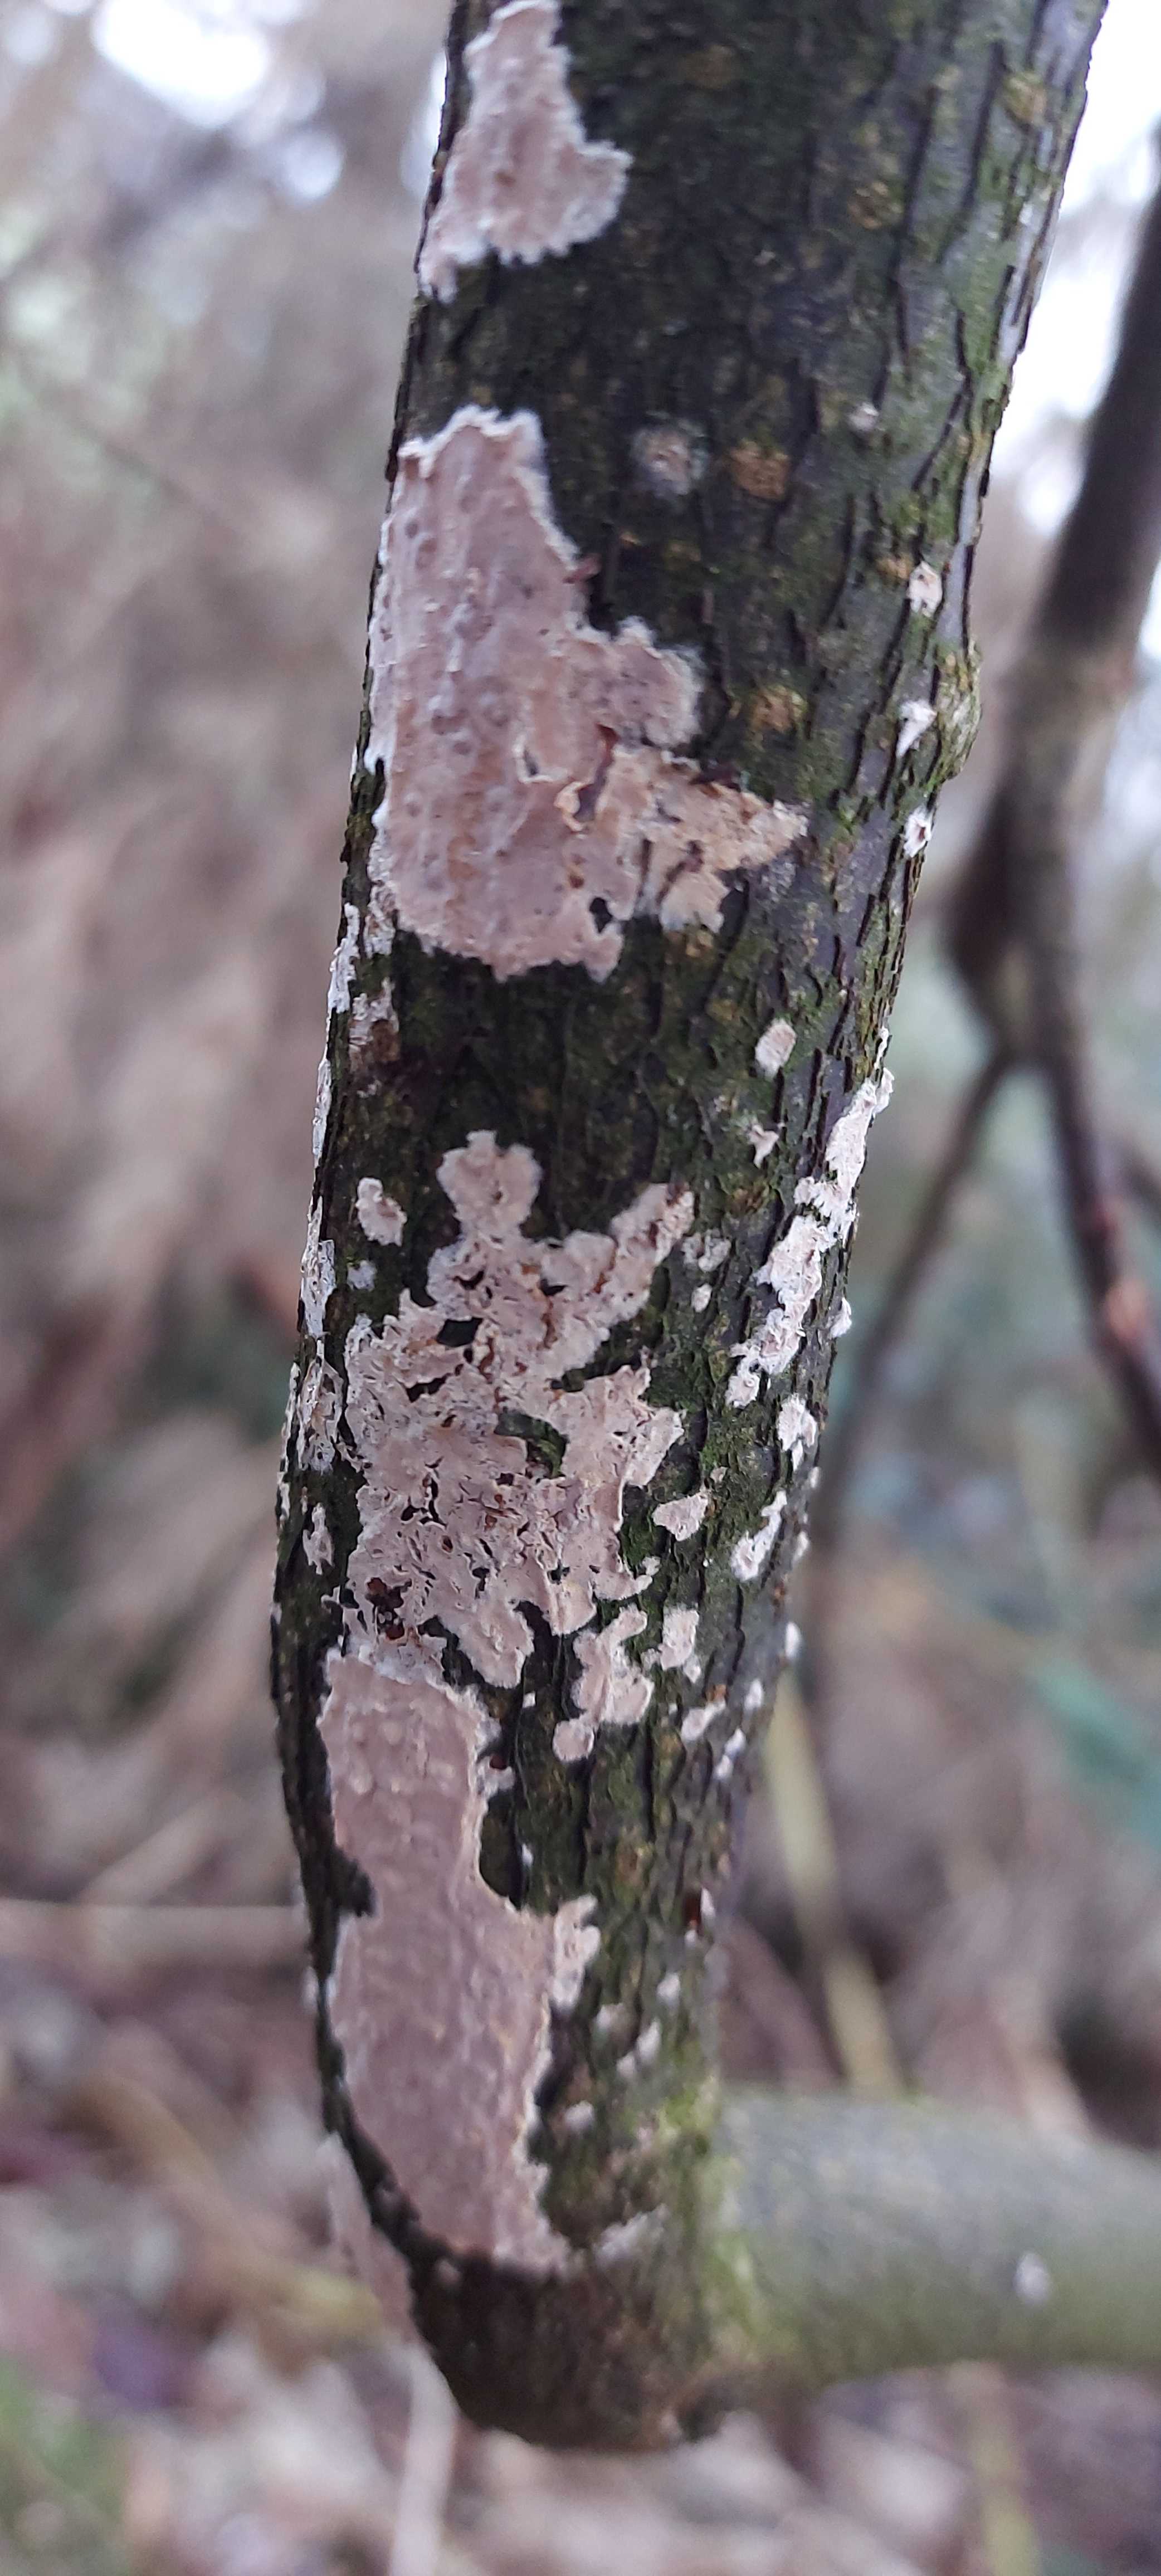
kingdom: Fungi
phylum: Basidiomycota
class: Agaricomycetes
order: Agaricales
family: Physalacriaceae
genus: Cylindrobasidium
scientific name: Cylindrobasidium evolvens
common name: sprækkehinde
